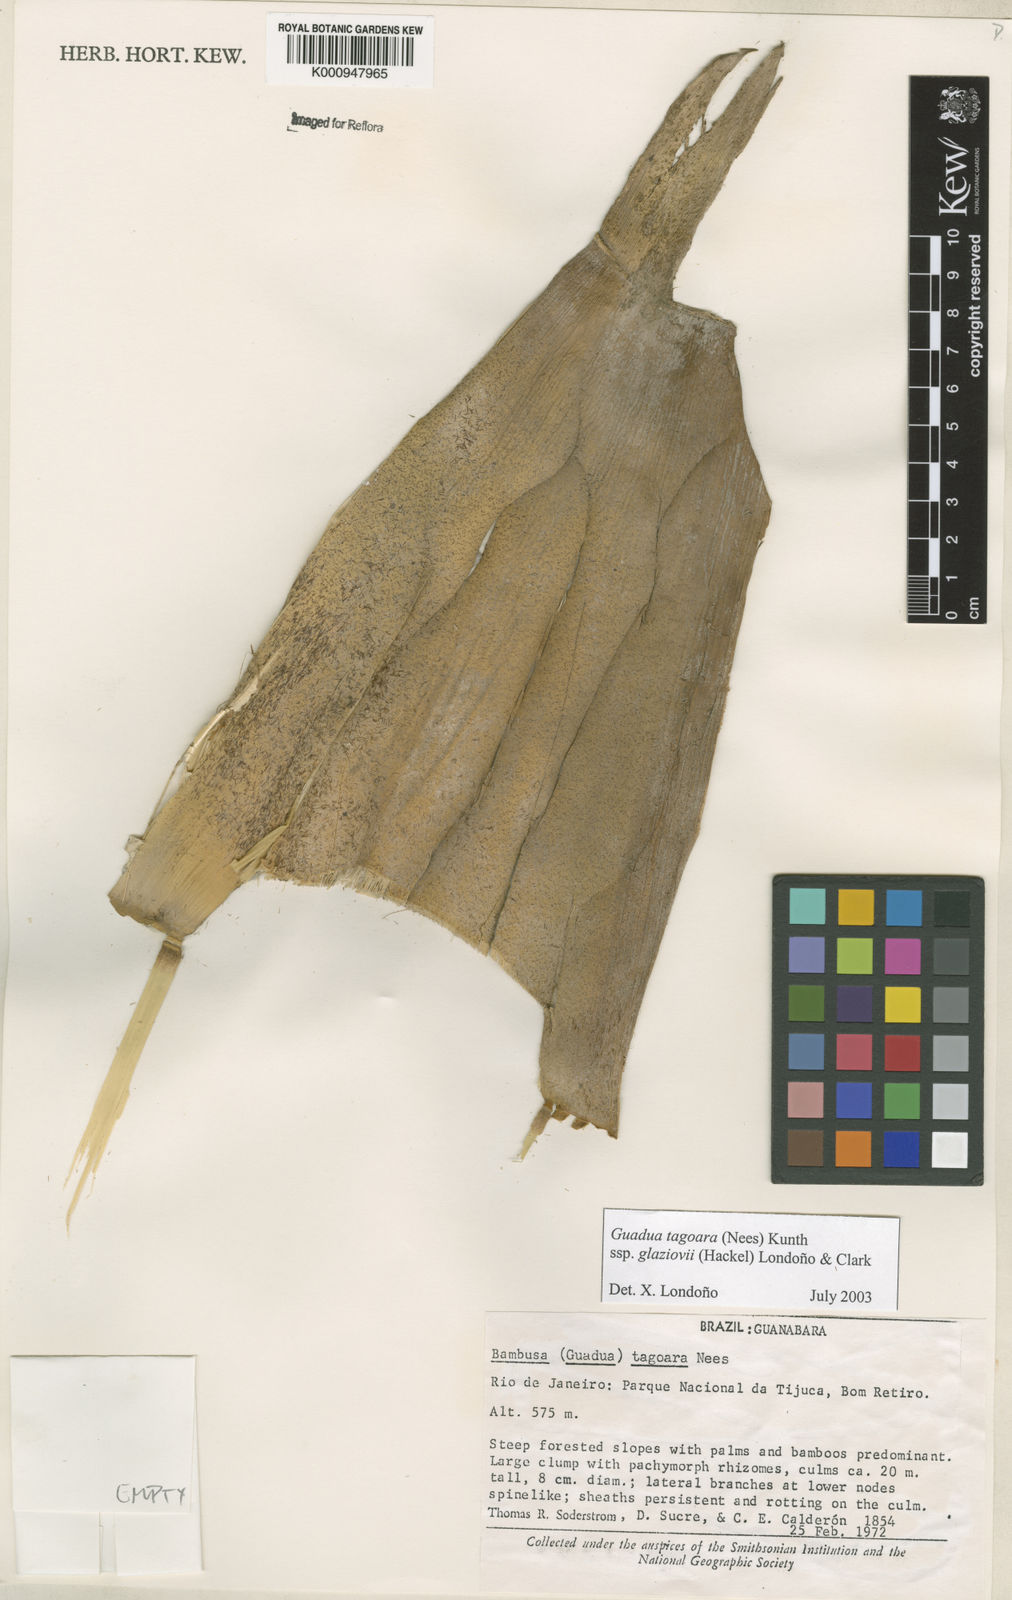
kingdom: Plantae
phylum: Tracheophyta
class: Liliopsida
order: Poales
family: Poaceae
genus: Guadua
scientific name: Guadua tagoara
